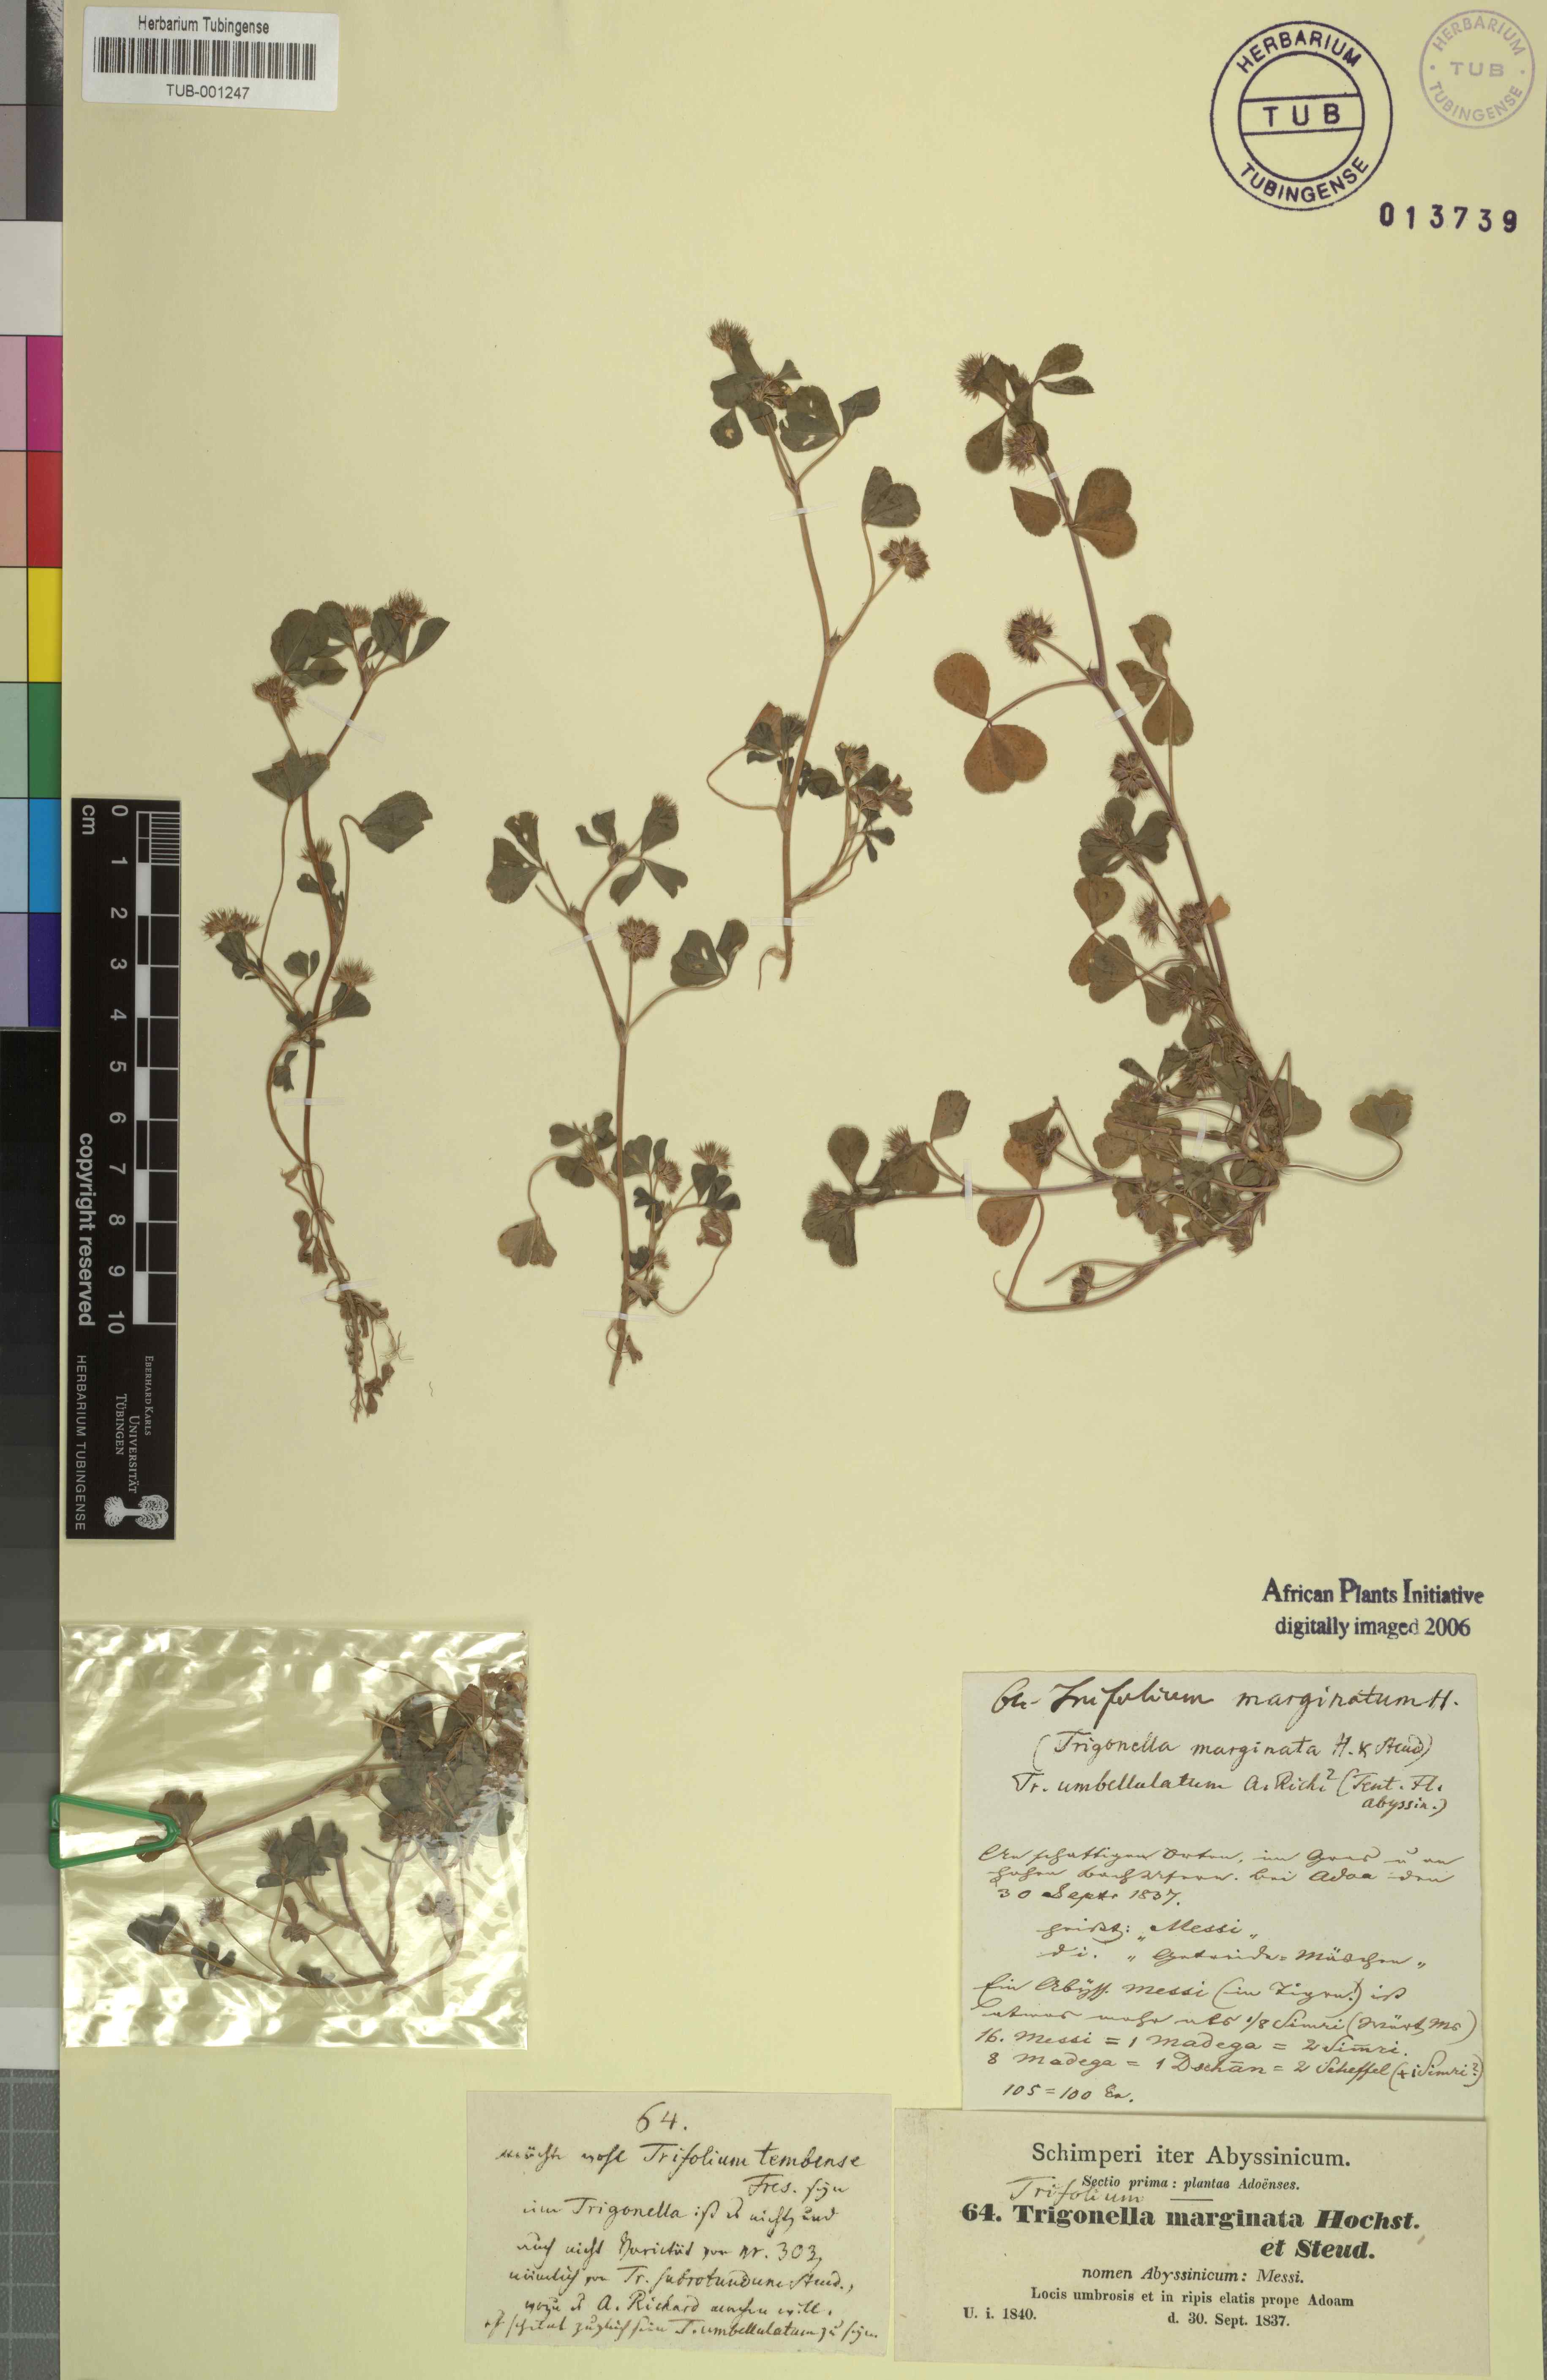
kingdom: Plantae
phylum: Tracheophyta
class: Magnoliopsida
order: Fabales
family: Fabaceae
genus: Trifolium
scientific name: Trifolium rueppellianum
